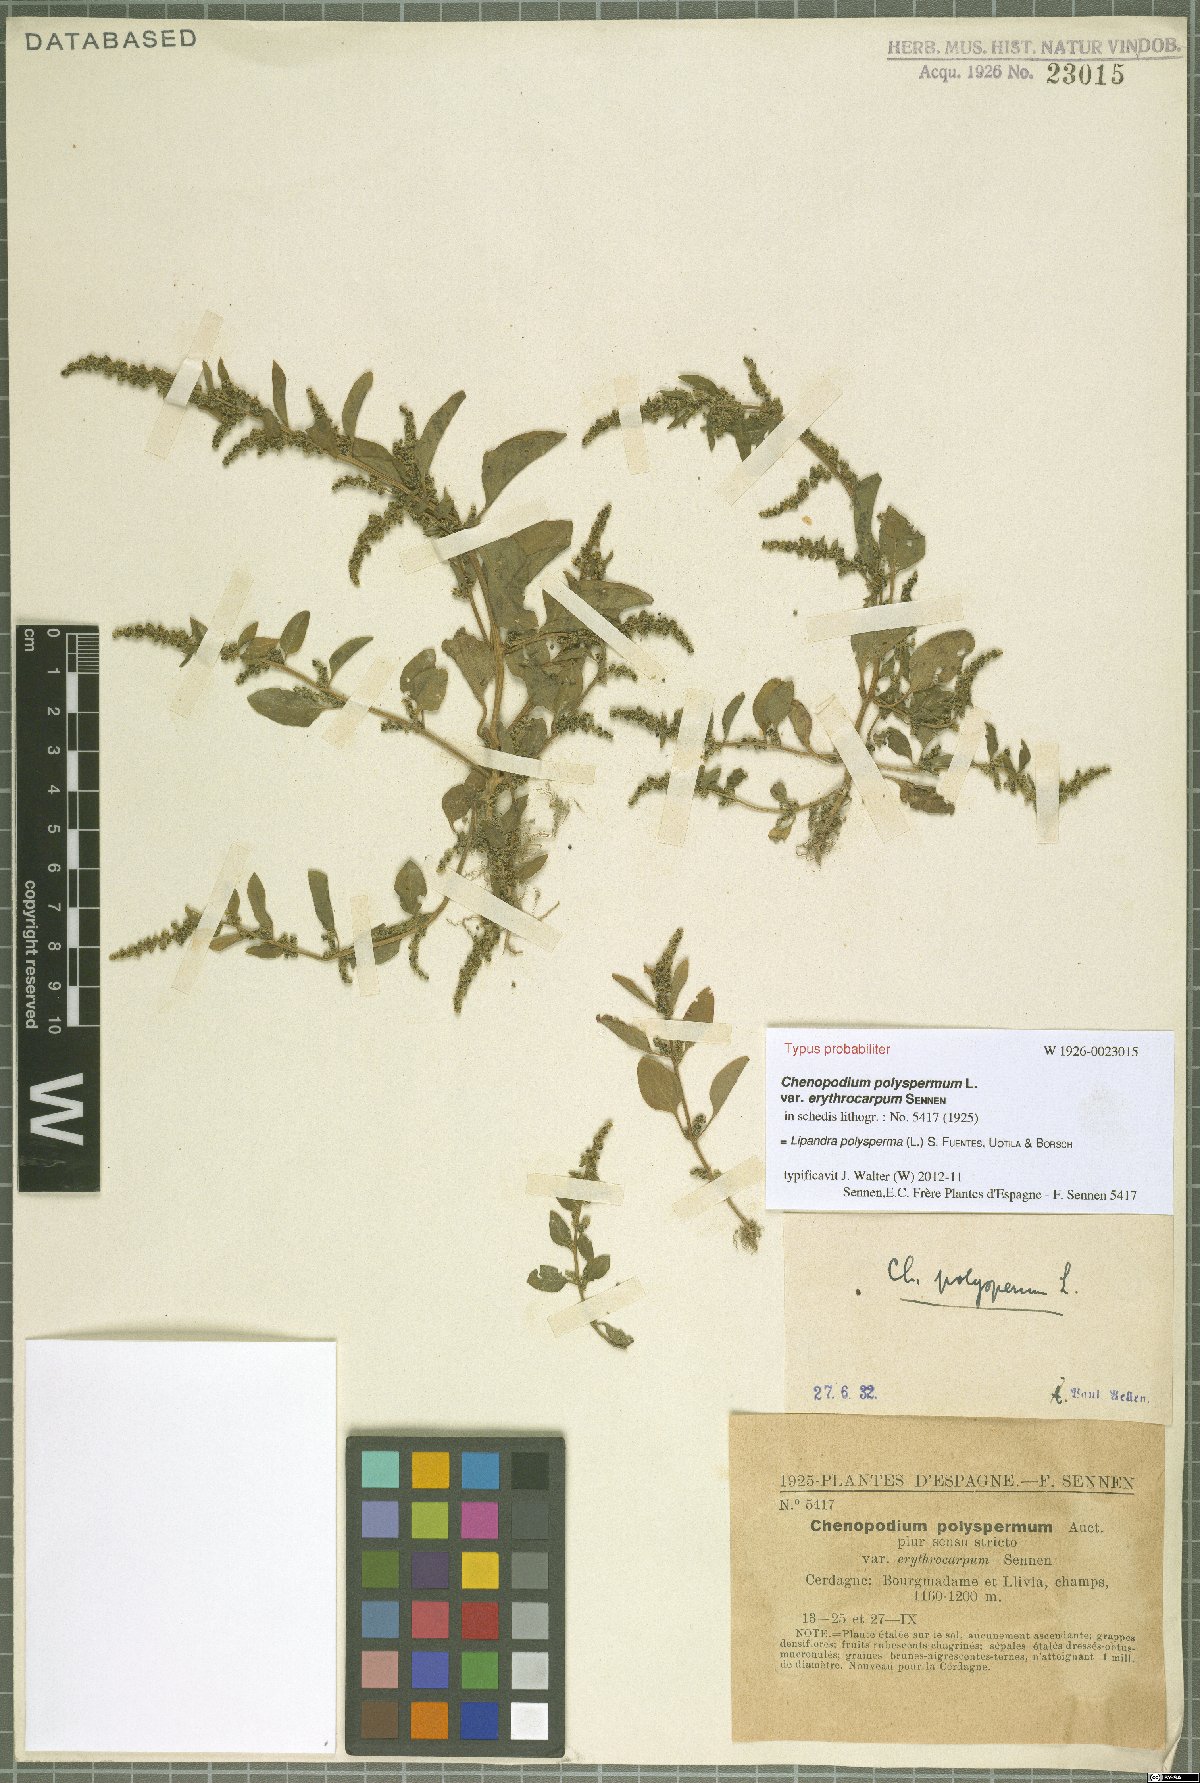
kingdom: Plantae
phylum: Tracheophyta
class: Magnoliopsida
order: Caryophyllales
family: Amaranthaceae
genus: Lipandra
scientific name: Lipandra polysperma
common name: Many-seed goosefoot
